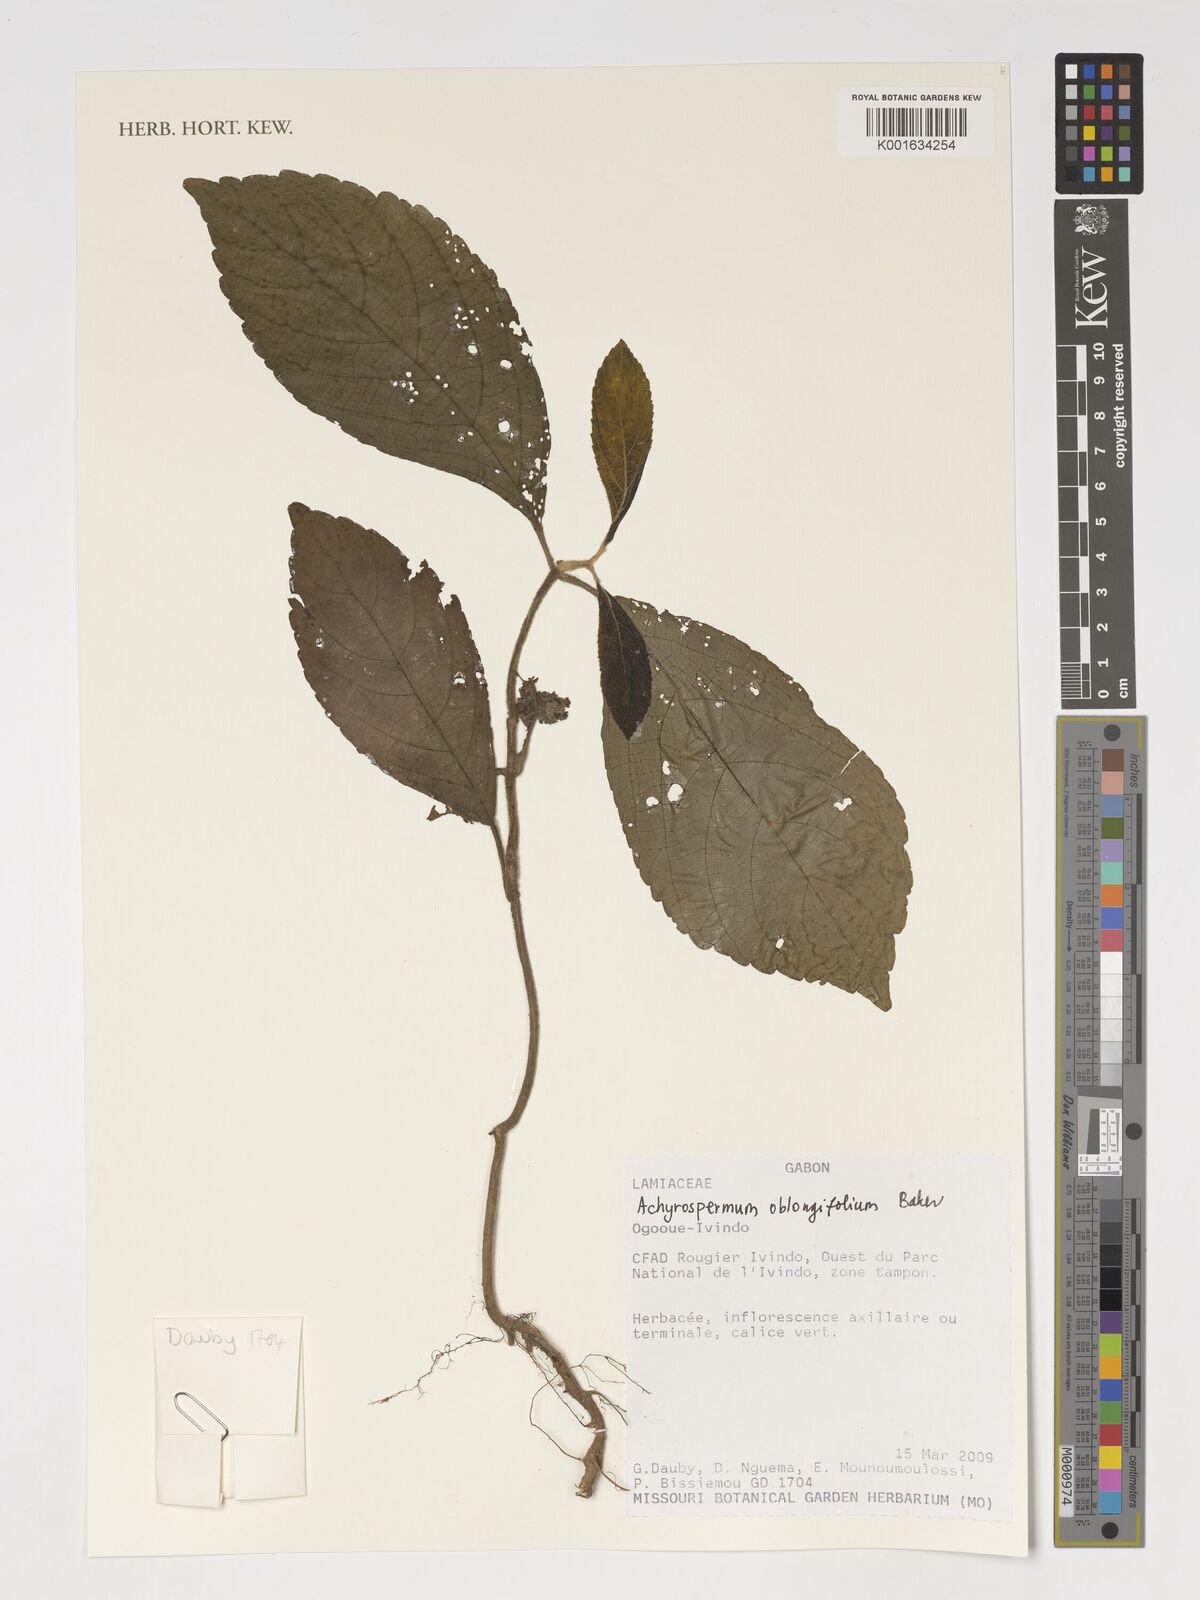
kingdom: Plantae
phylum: Tracheophyta
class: Magnoliopsida
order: Lamiales
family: Lamiaceae
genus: Achyrospermum
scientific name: Achyrospermum oblongifolium
